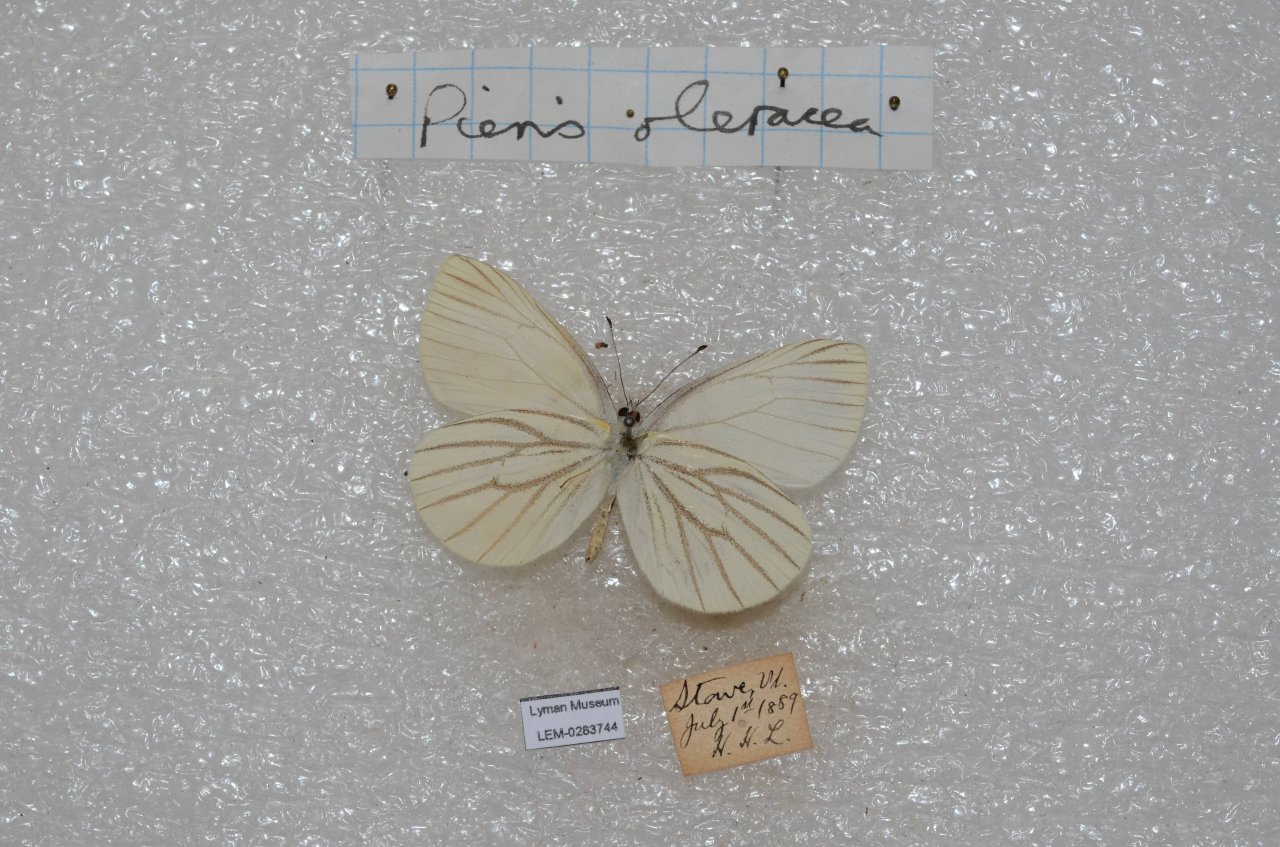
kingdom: Animalia
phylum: Arthropoda
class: Insecta
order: Lepidoptera
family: Pieridae
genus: Pieris
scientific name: Pieris oleracea
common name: Mustard White
